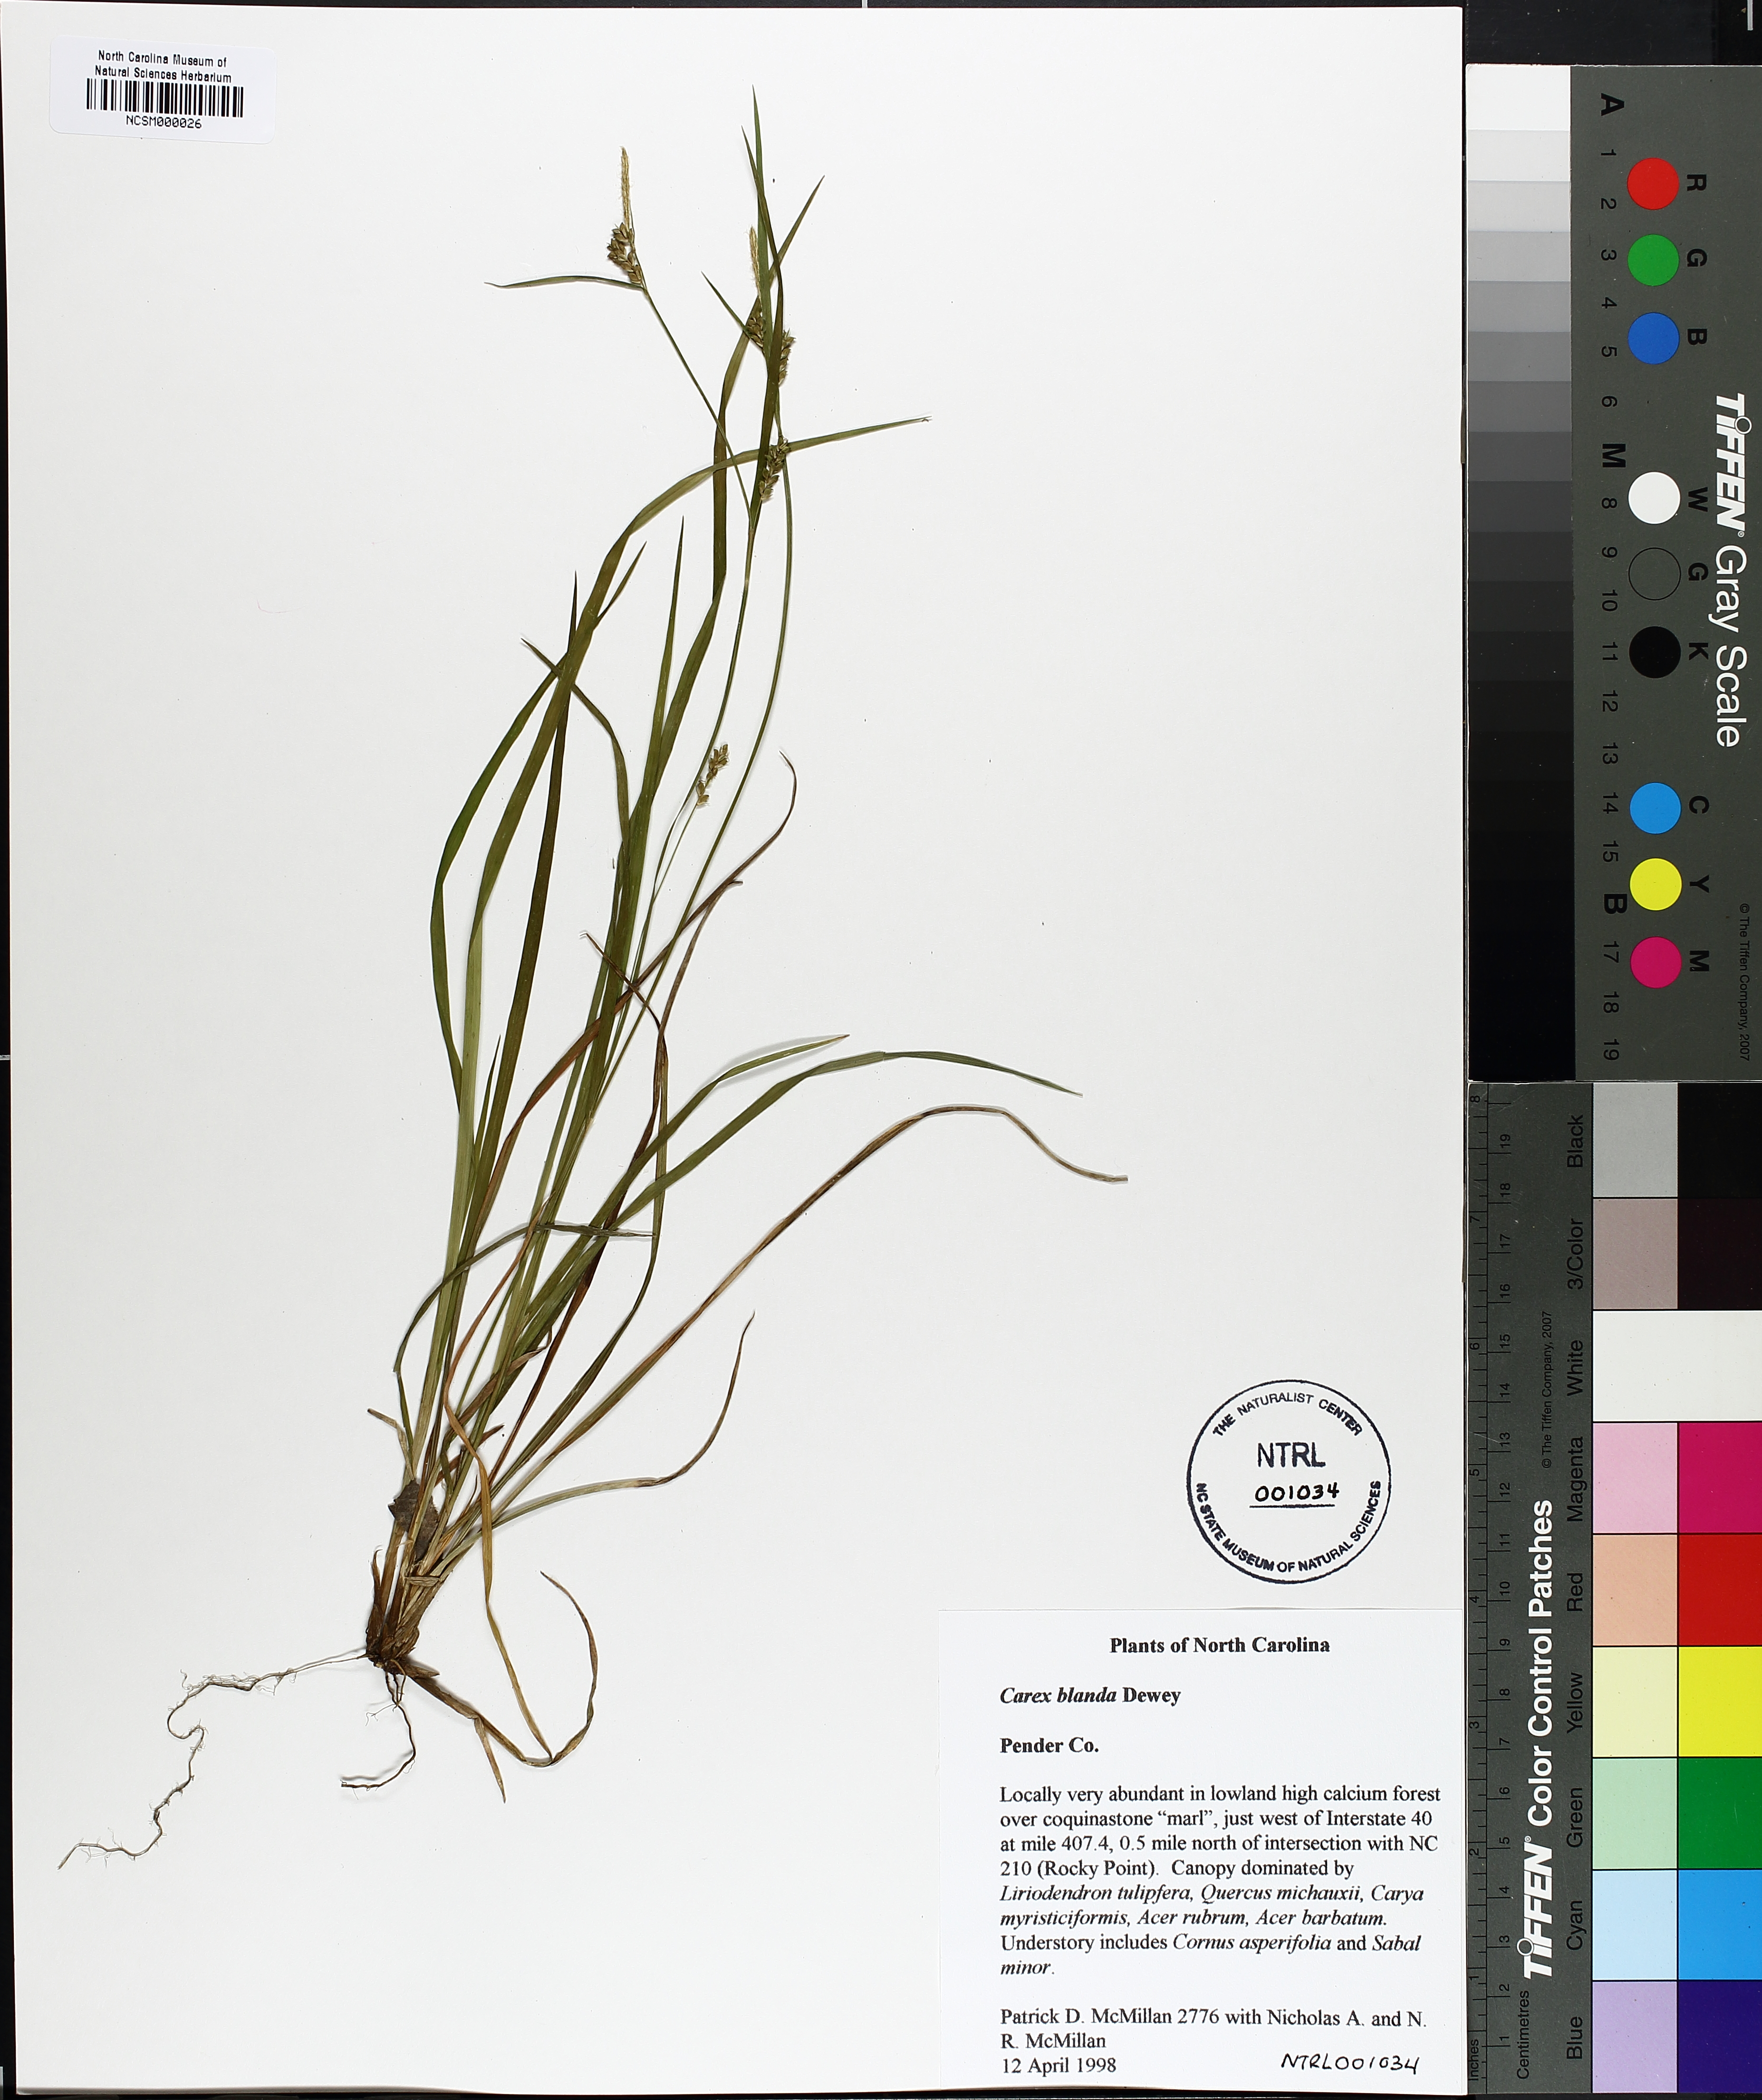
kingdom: Plantae
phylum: Tracheophyta
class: Liliopsida
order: Poales
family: Cyperaceae
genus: Carex
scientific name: Carex blanda
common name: Bland sedge
